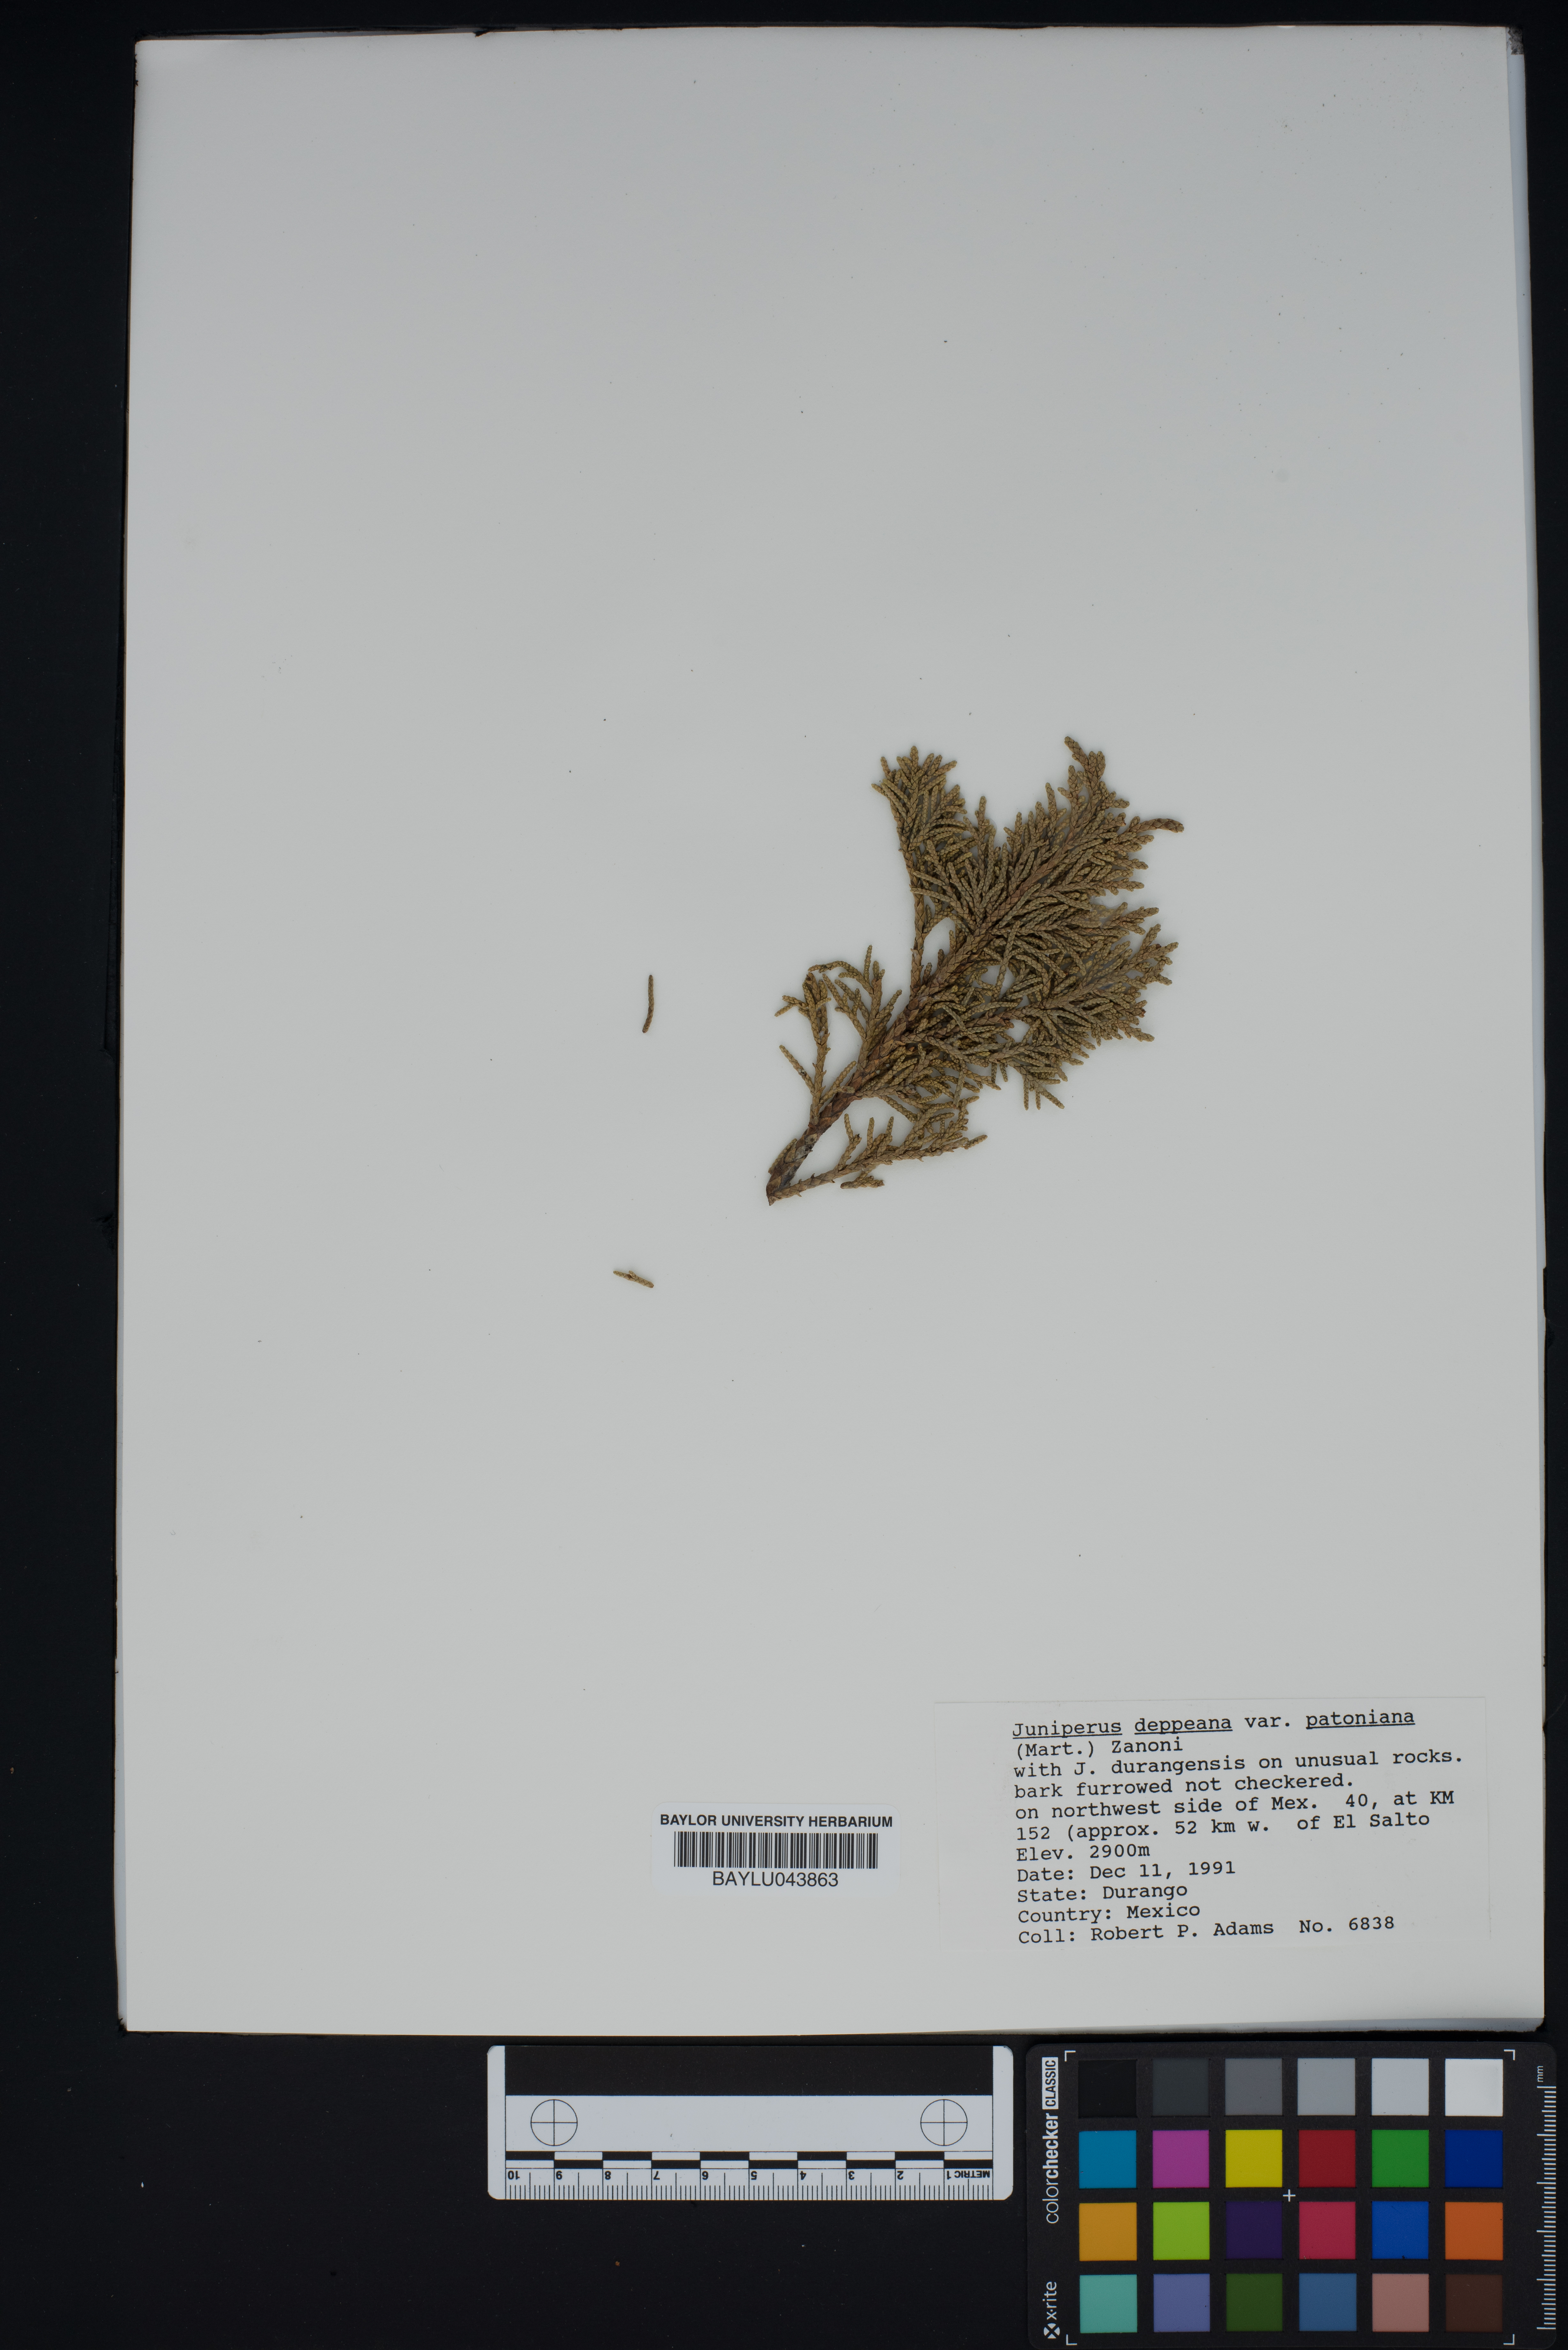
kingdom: Plantae
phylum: Tracheophyta
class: Pinopsida
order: Pinales
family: Cupressaceae
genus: Juniperus
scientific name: Juniperus deppeana
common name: Alligator juniper
